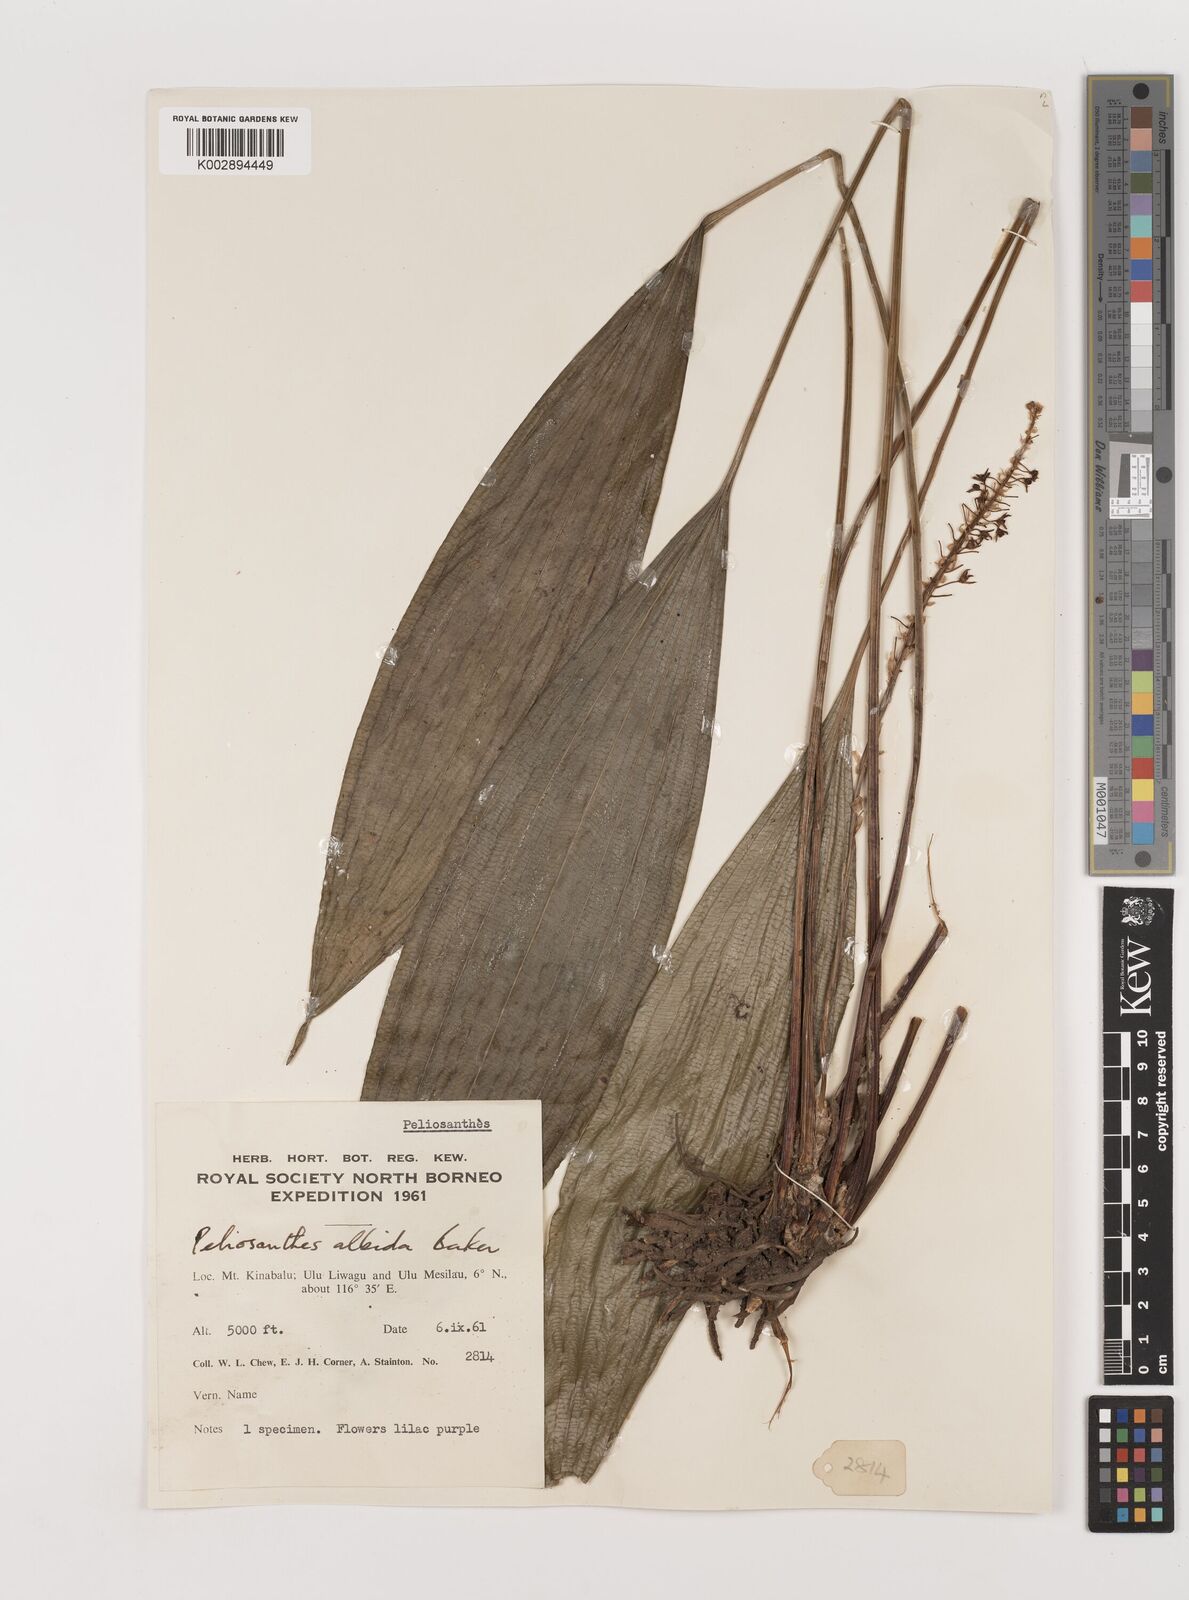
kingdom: Plantae
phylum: Tracheophyta
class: Liliopsida
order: Asparagales
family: Asparagaceae
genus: Peliosanthes
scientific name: Peliosanthes teta
